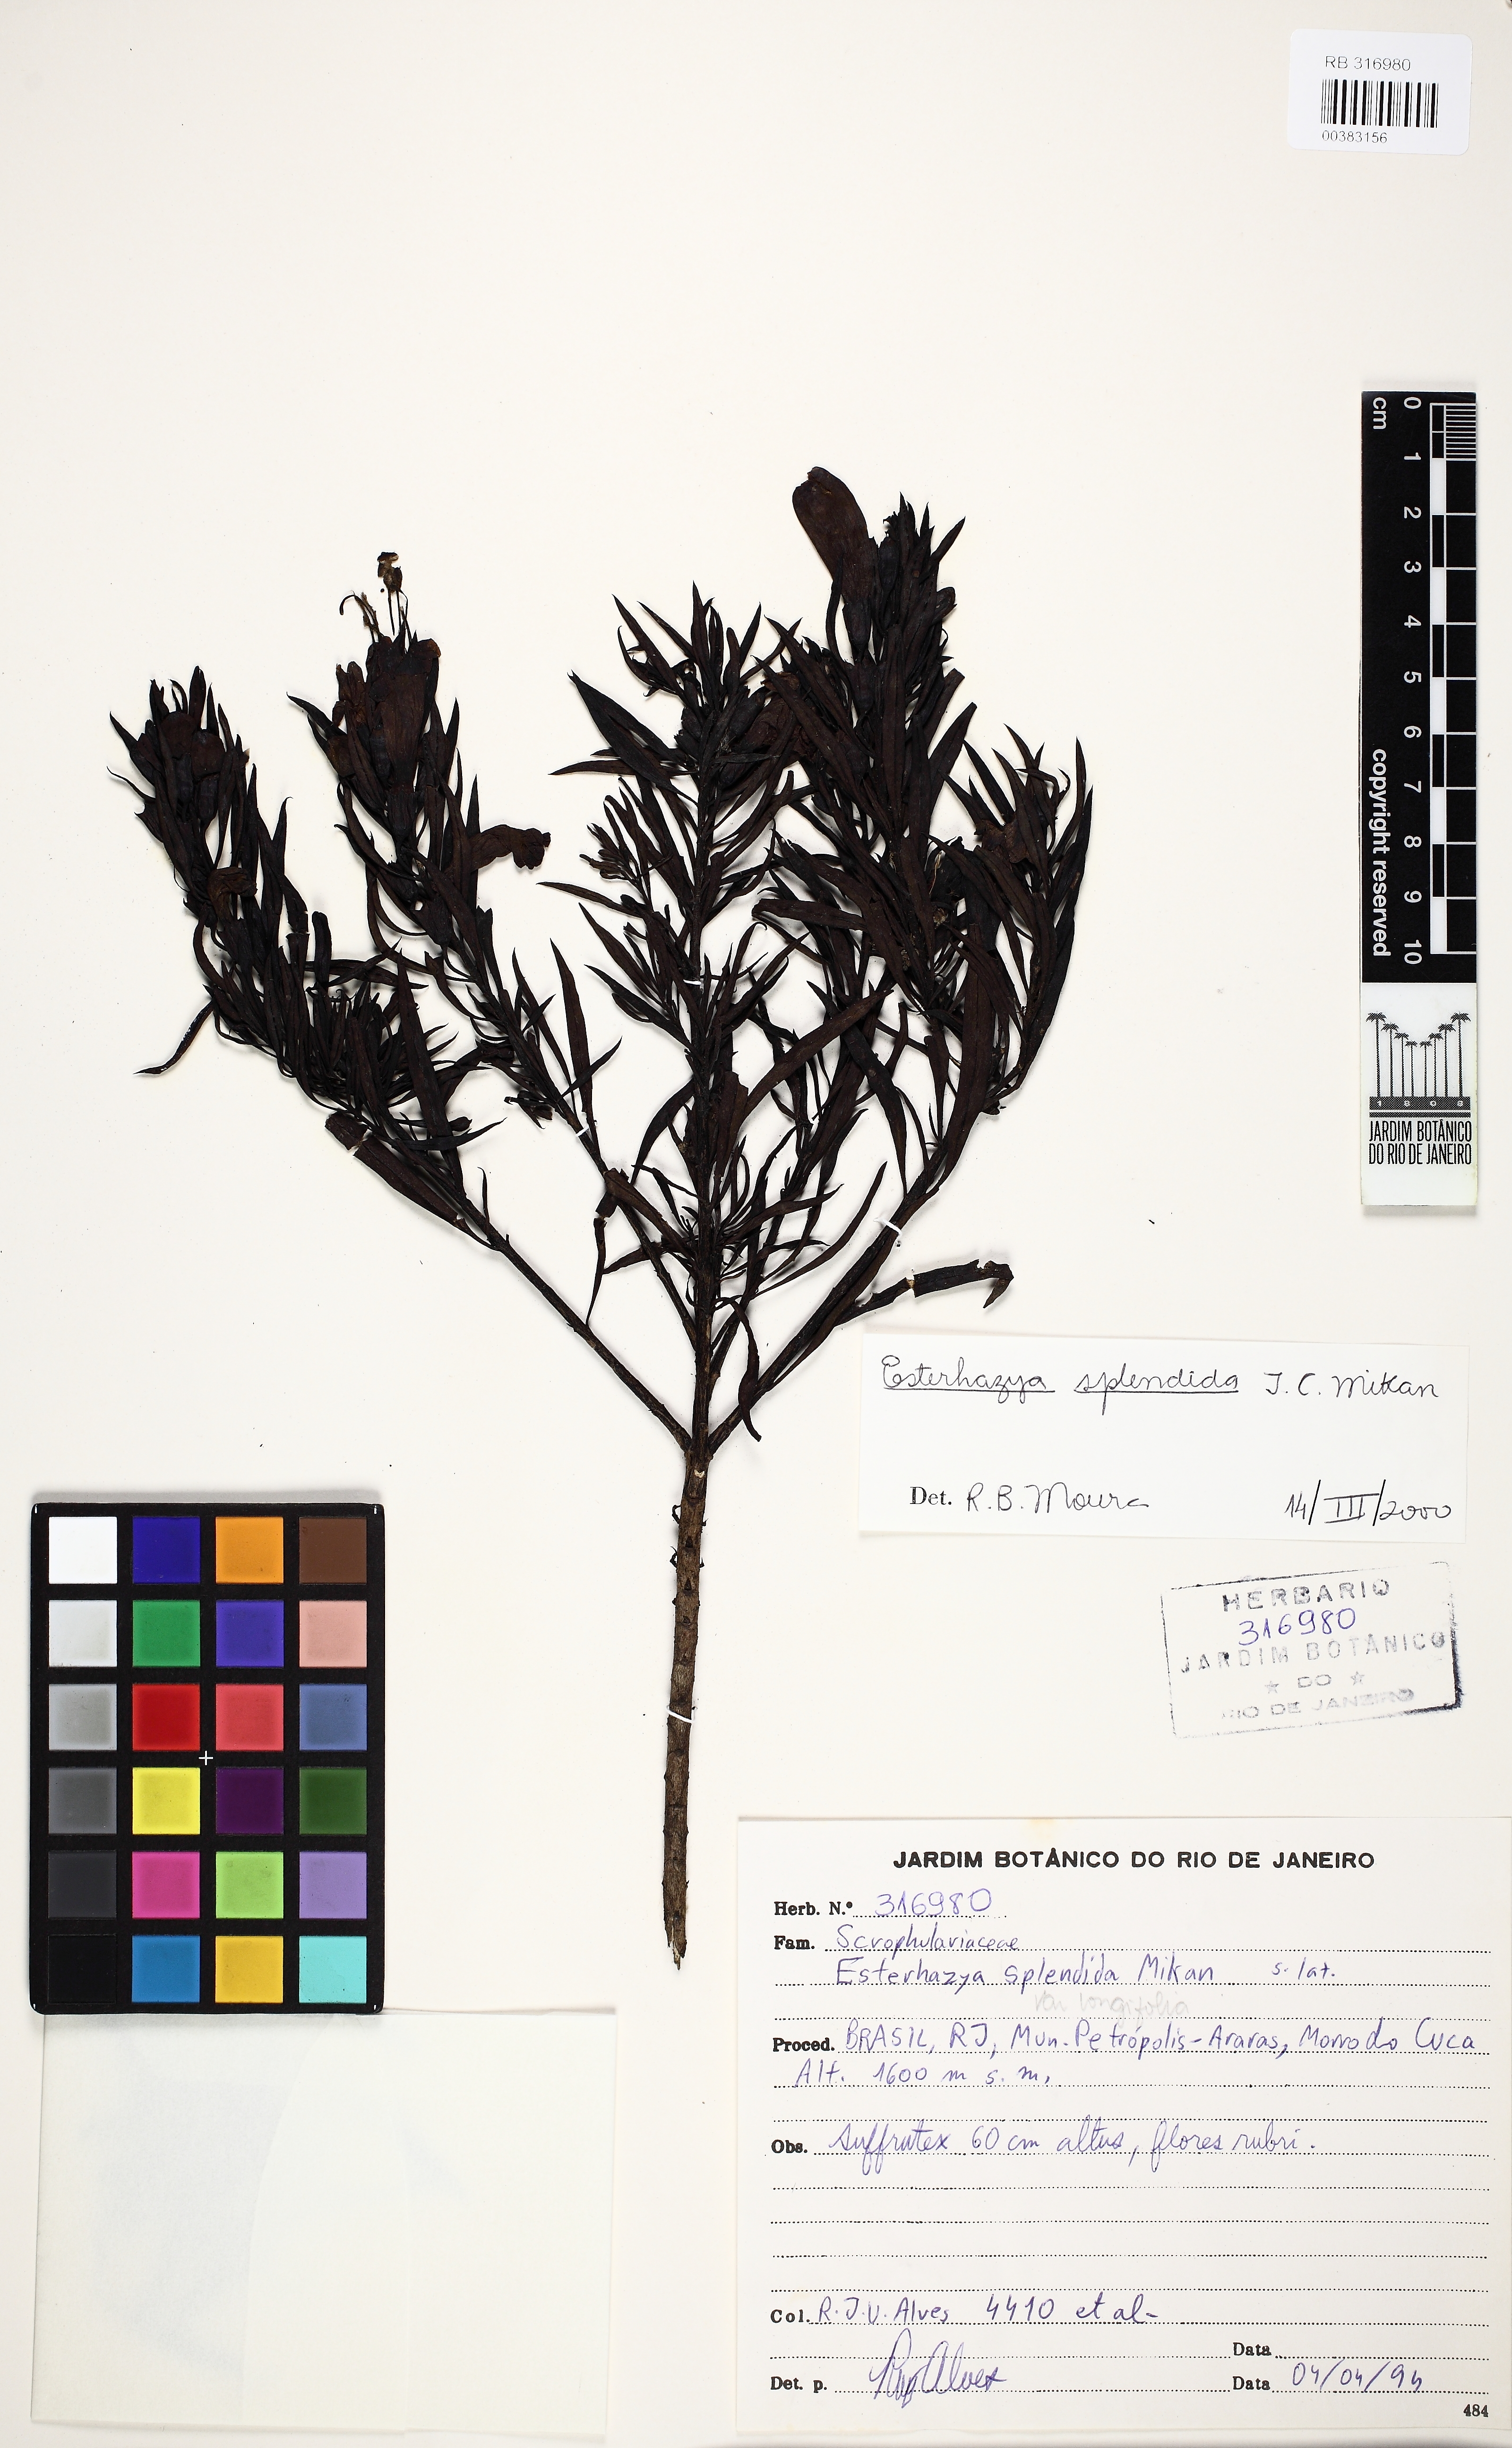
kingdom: Plantae
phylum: Tracheophyta
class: Magnoliopsida
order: Lamiales
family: Orobanchaceae
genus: Esterhazya
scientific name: Esterhazya splendida
